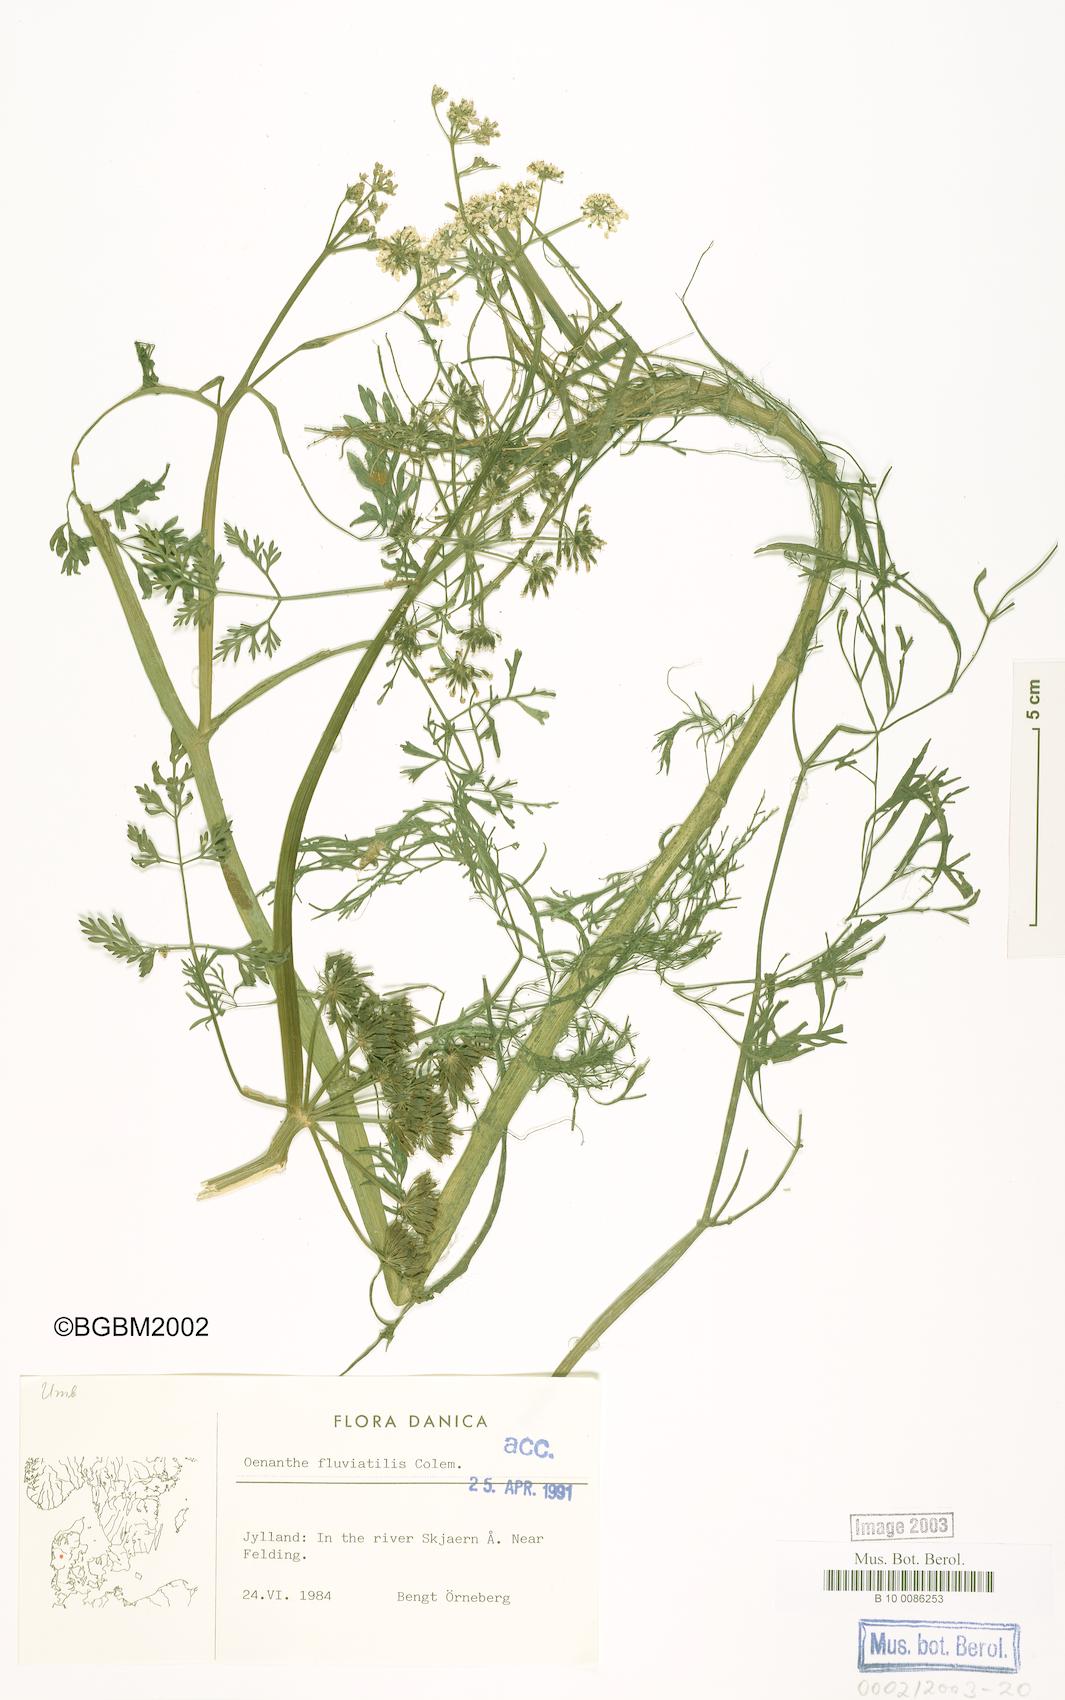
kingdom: Plantae
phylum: Tracheophyta
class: Magnoliopsida
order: Apiales
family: Apiaceae
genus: Oenanthe
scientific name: Oenanthe fluviatilis
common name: River water-dropwort
